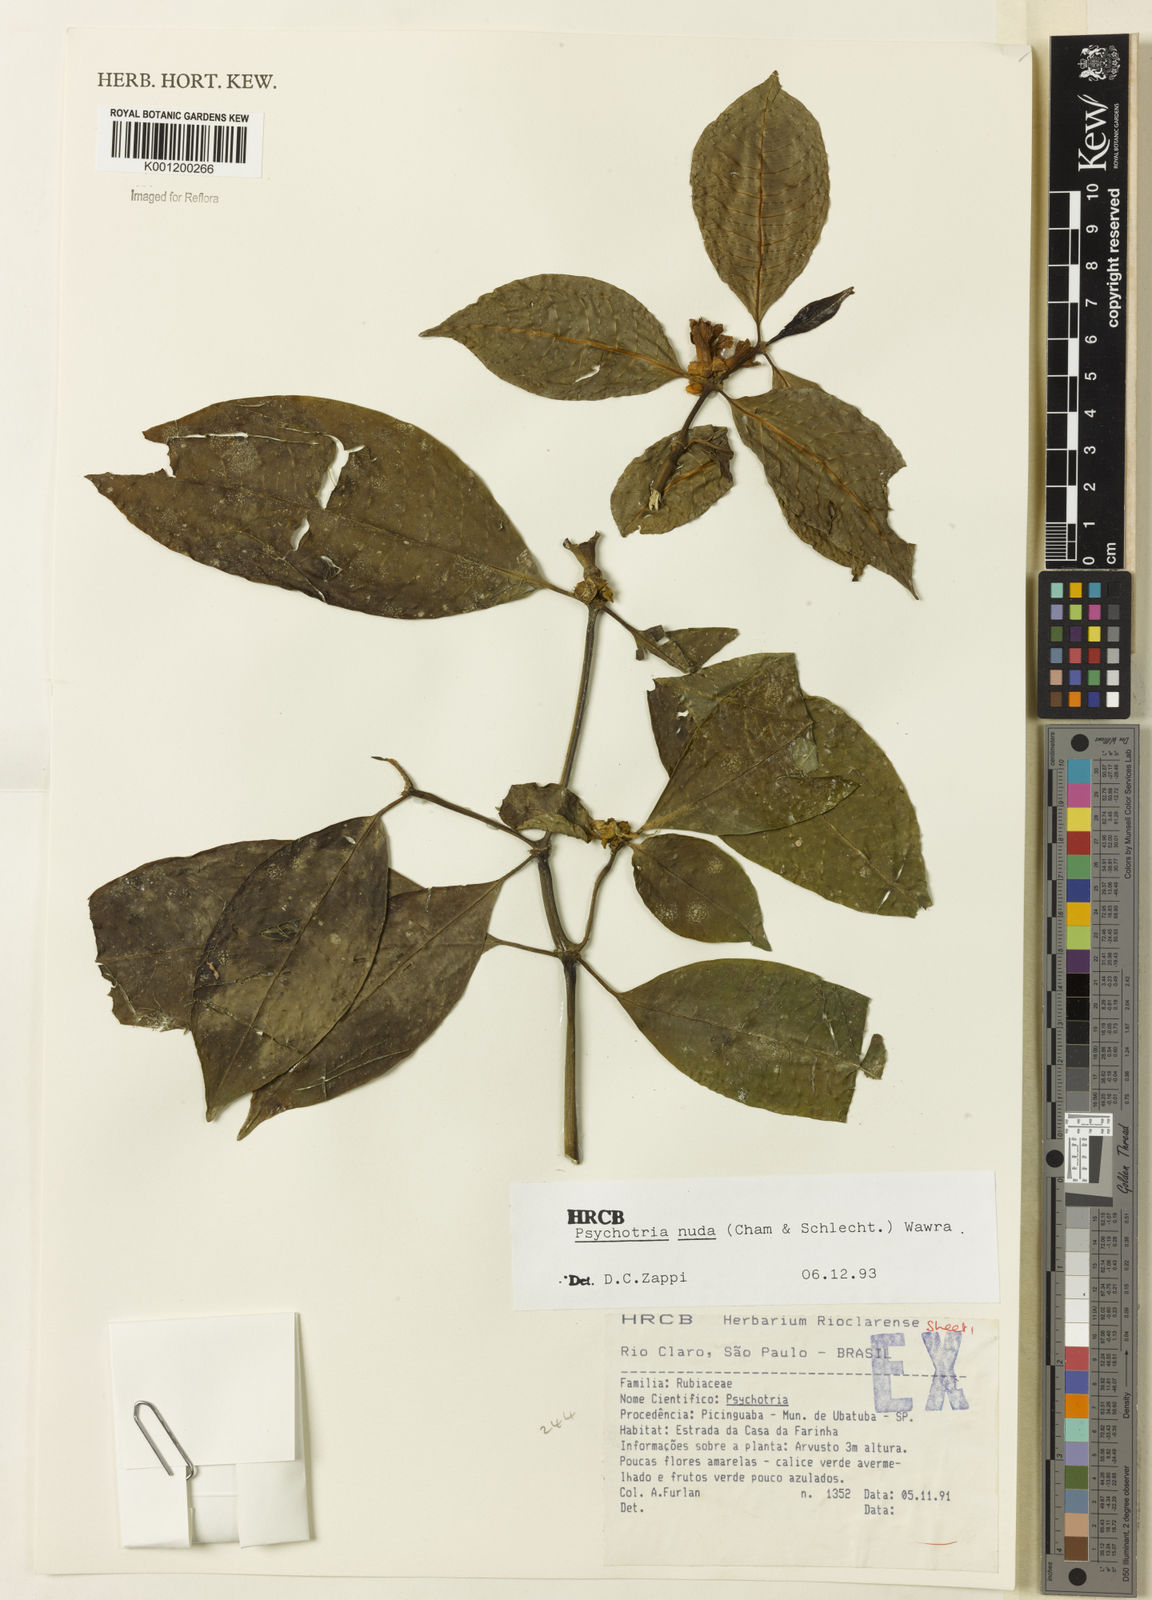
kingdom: Plantae
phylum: Tracheophyta
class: Magnoliopsida
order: Gentianales
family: Rubiaceae
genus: Psychotria
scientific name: Psychotria nuda
